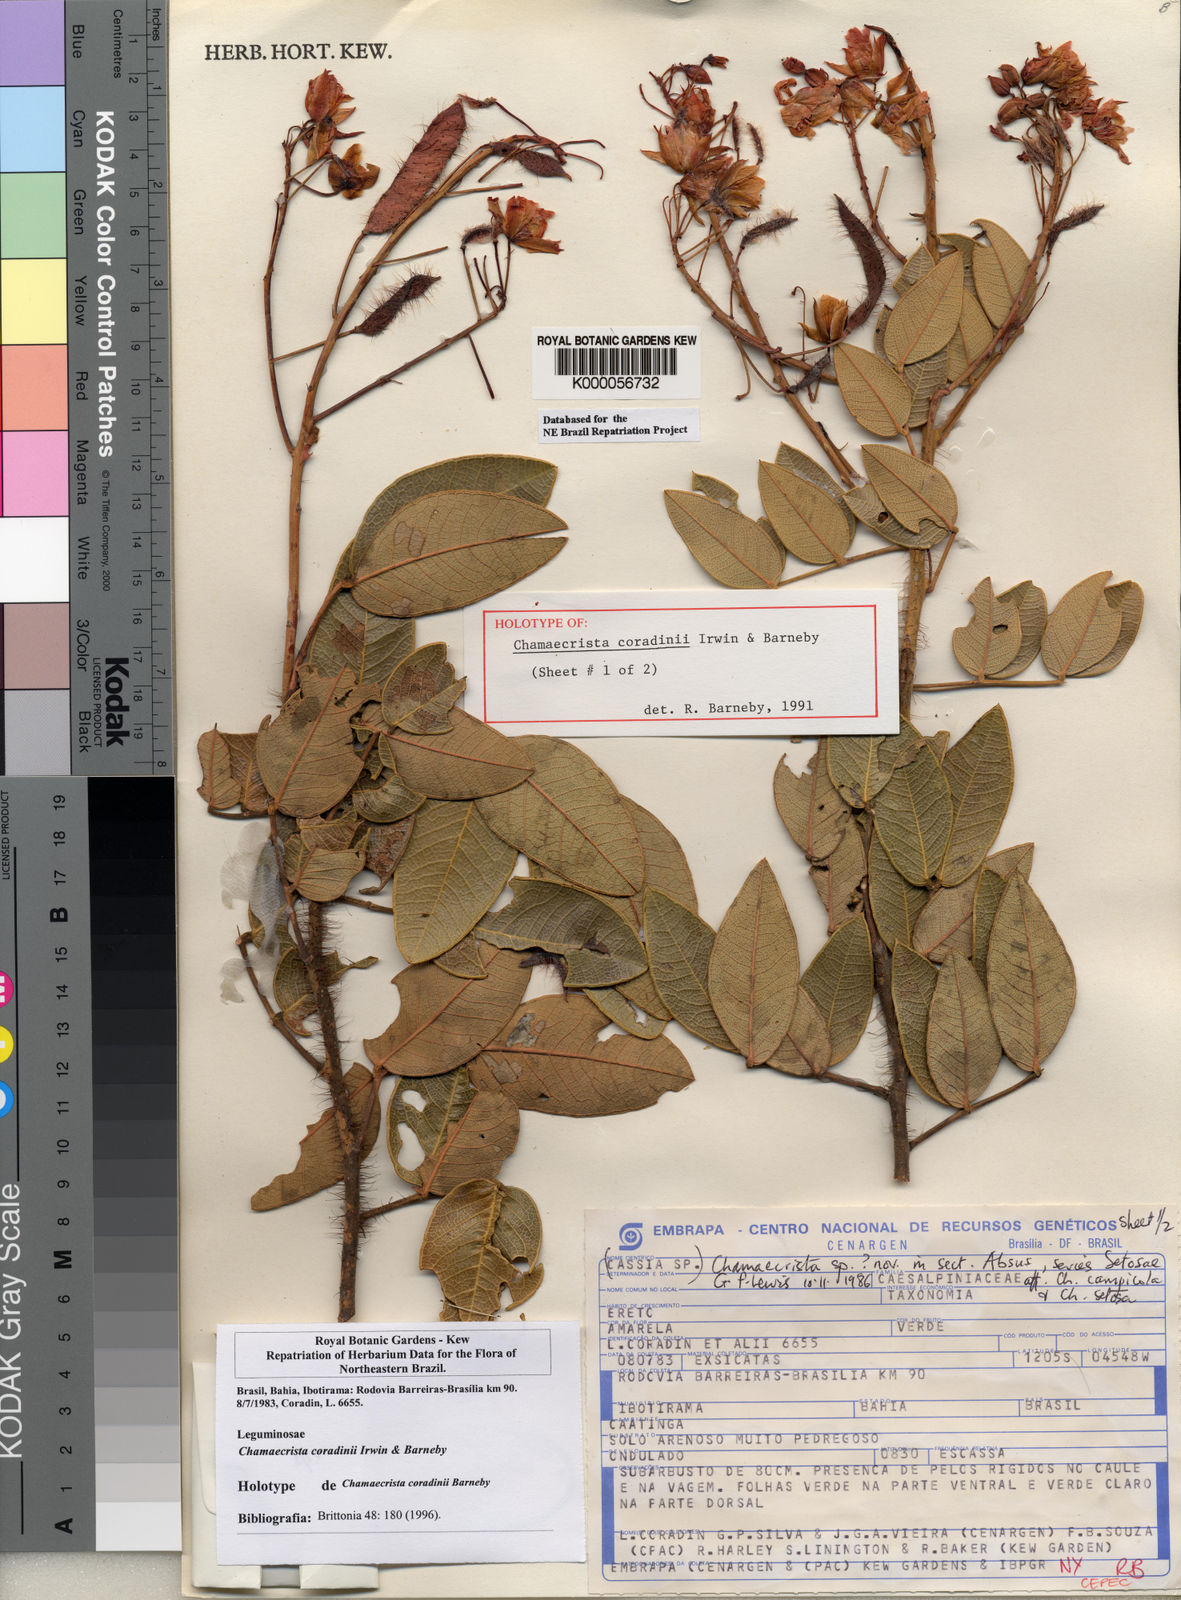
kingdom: Plantae
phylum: Tracheophyta
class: Magnoliopsida
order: Fabales
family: Fabaceae
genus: Chamaecrista
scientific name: Chamaecrista coradinii
